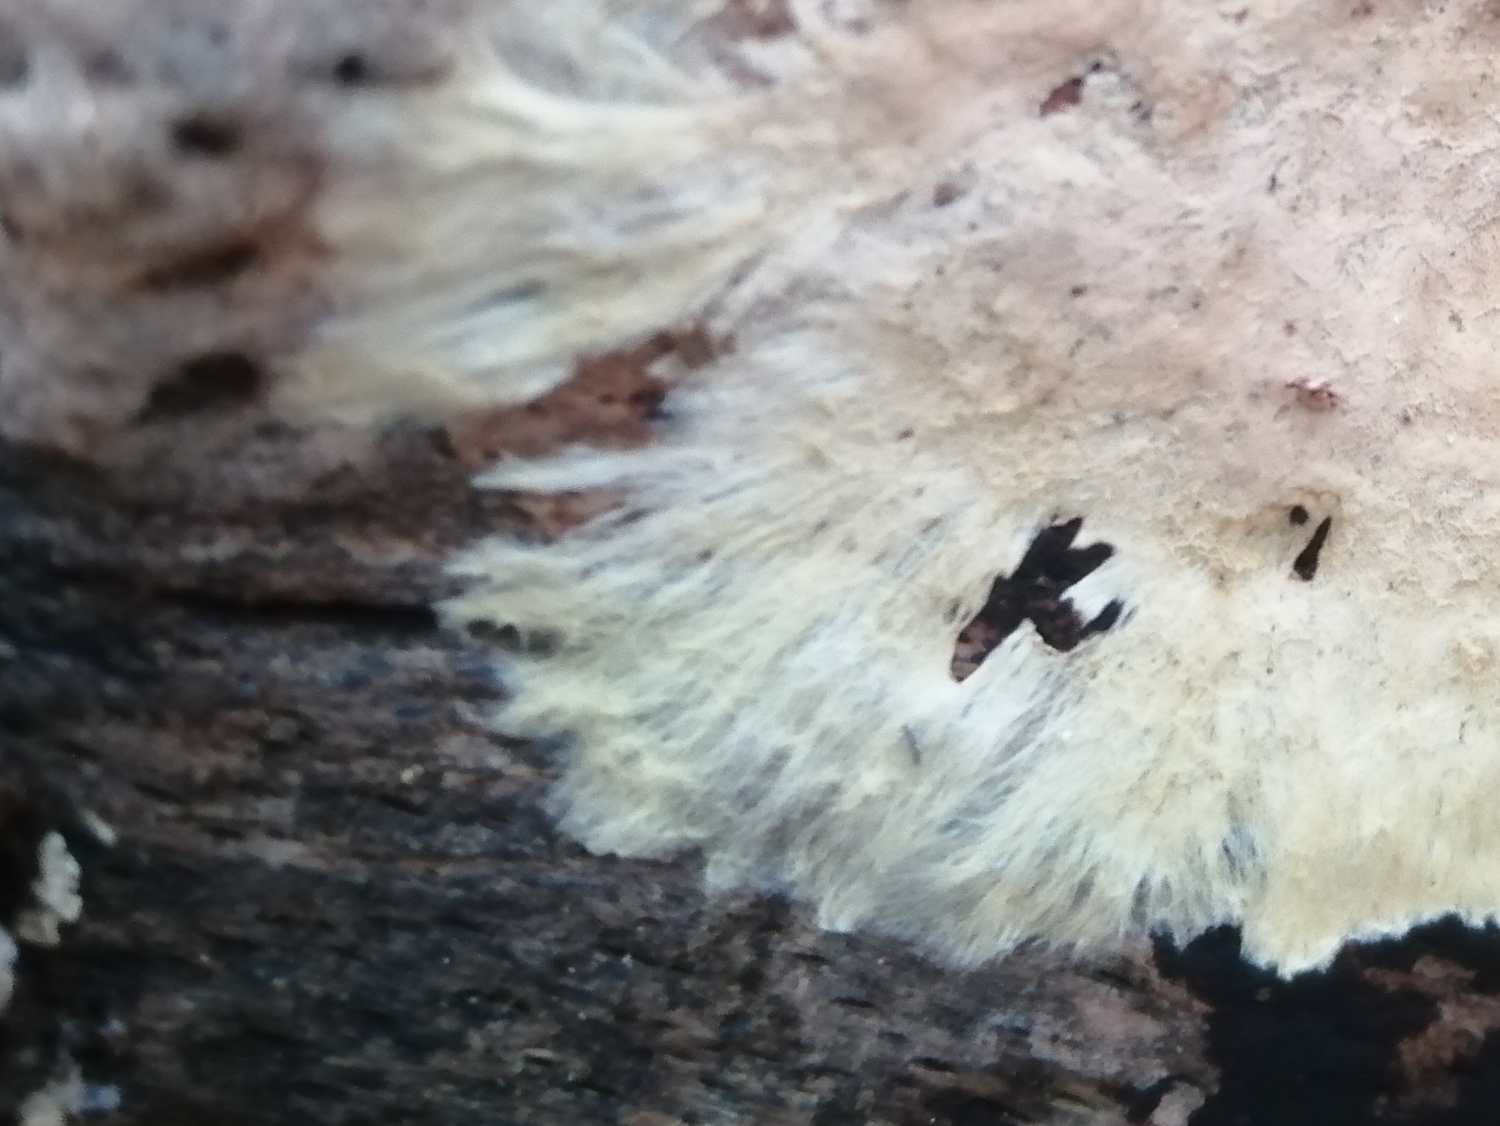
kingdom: Fungi
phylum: Basidiomycota
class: Agaricomycetes
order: Russulales
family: Xenasmataceae
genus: Xenasmatella
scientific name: Xenasmatella vaga
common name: svovl-strenghinde
